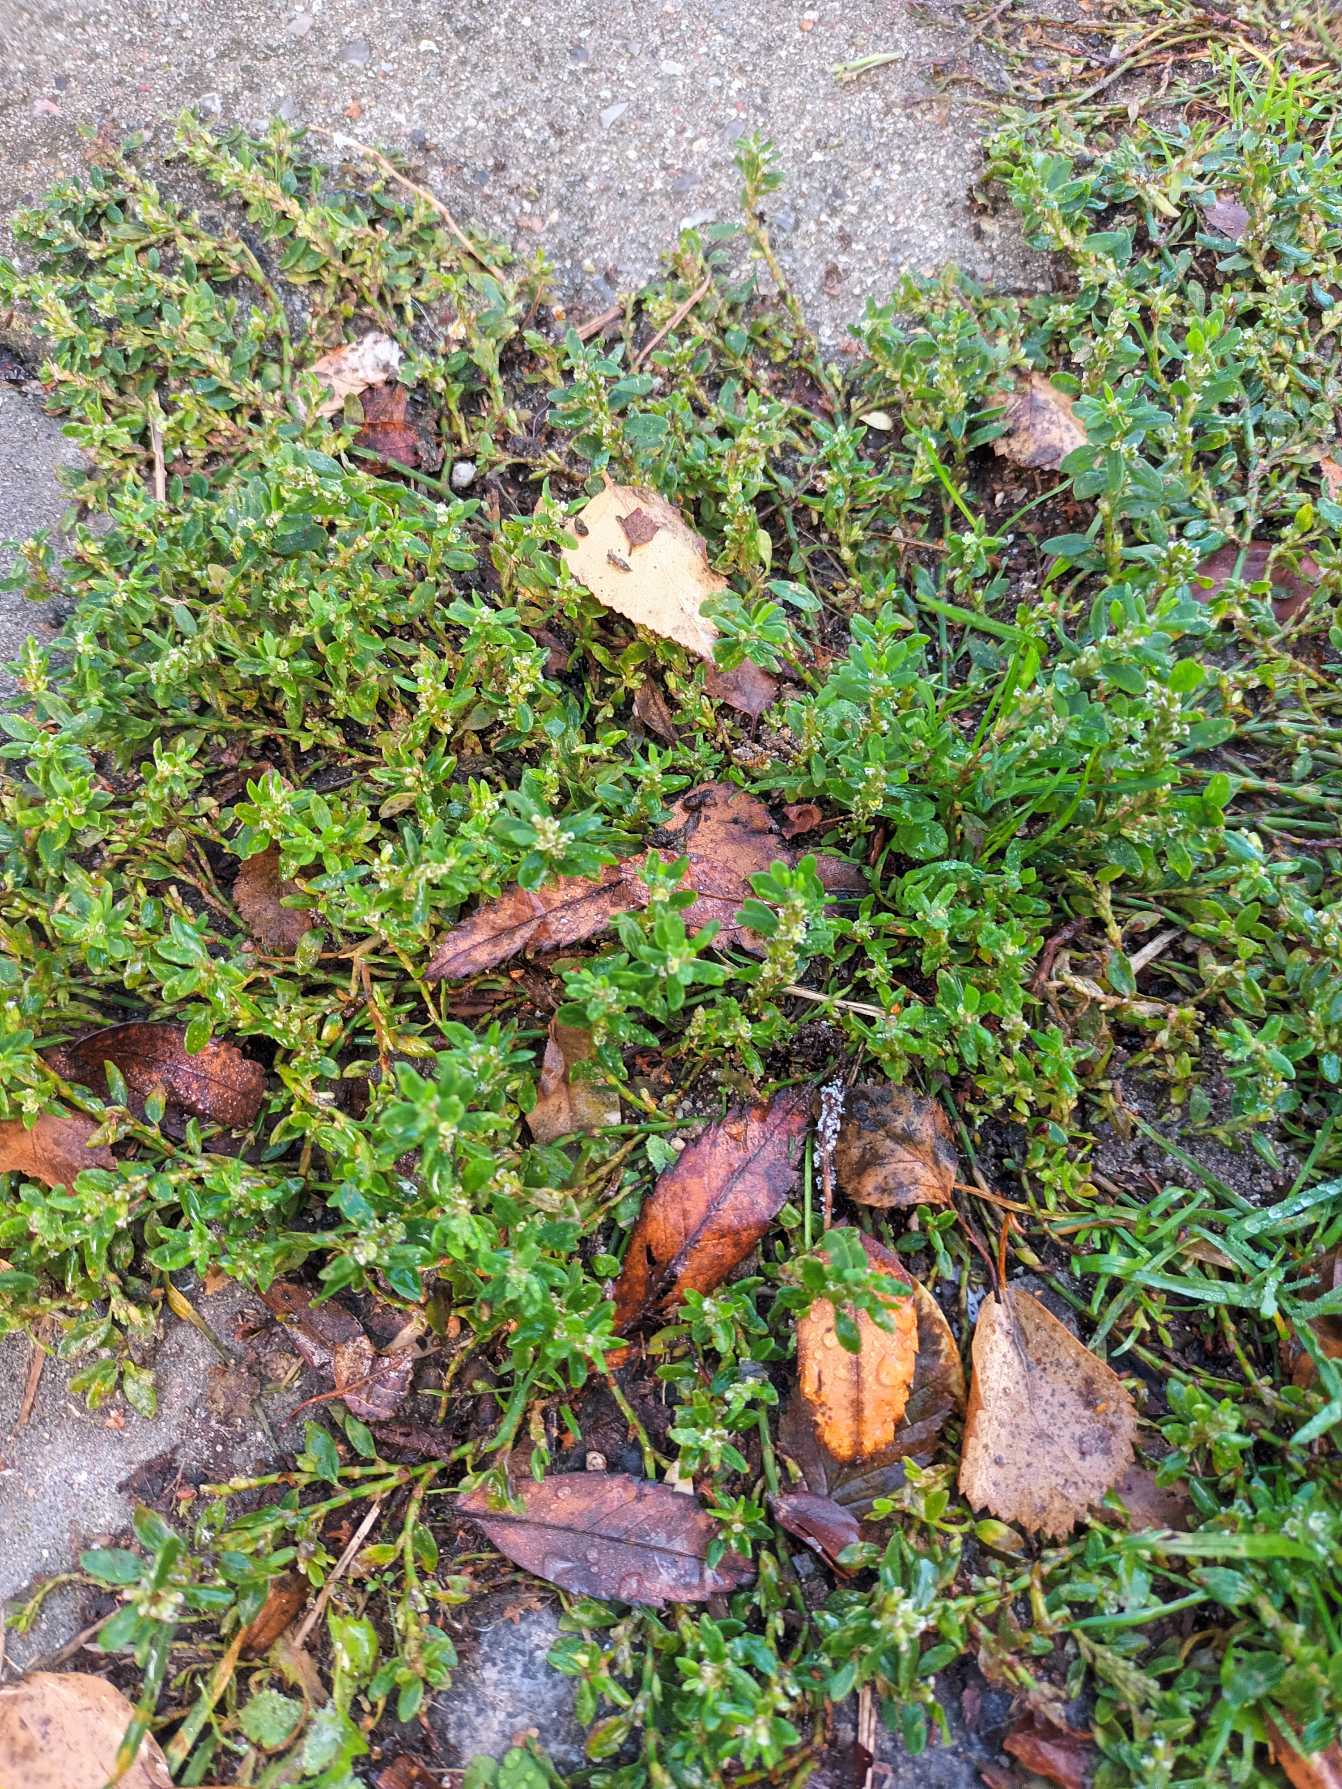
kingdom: Plantae
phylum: Tracheophyta
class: Magnoliopsida
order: Caryophyllales
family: Polygonaceae
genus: Polygonum
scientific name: Polygonum arenastrum
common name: Liggende vej-pileurt
